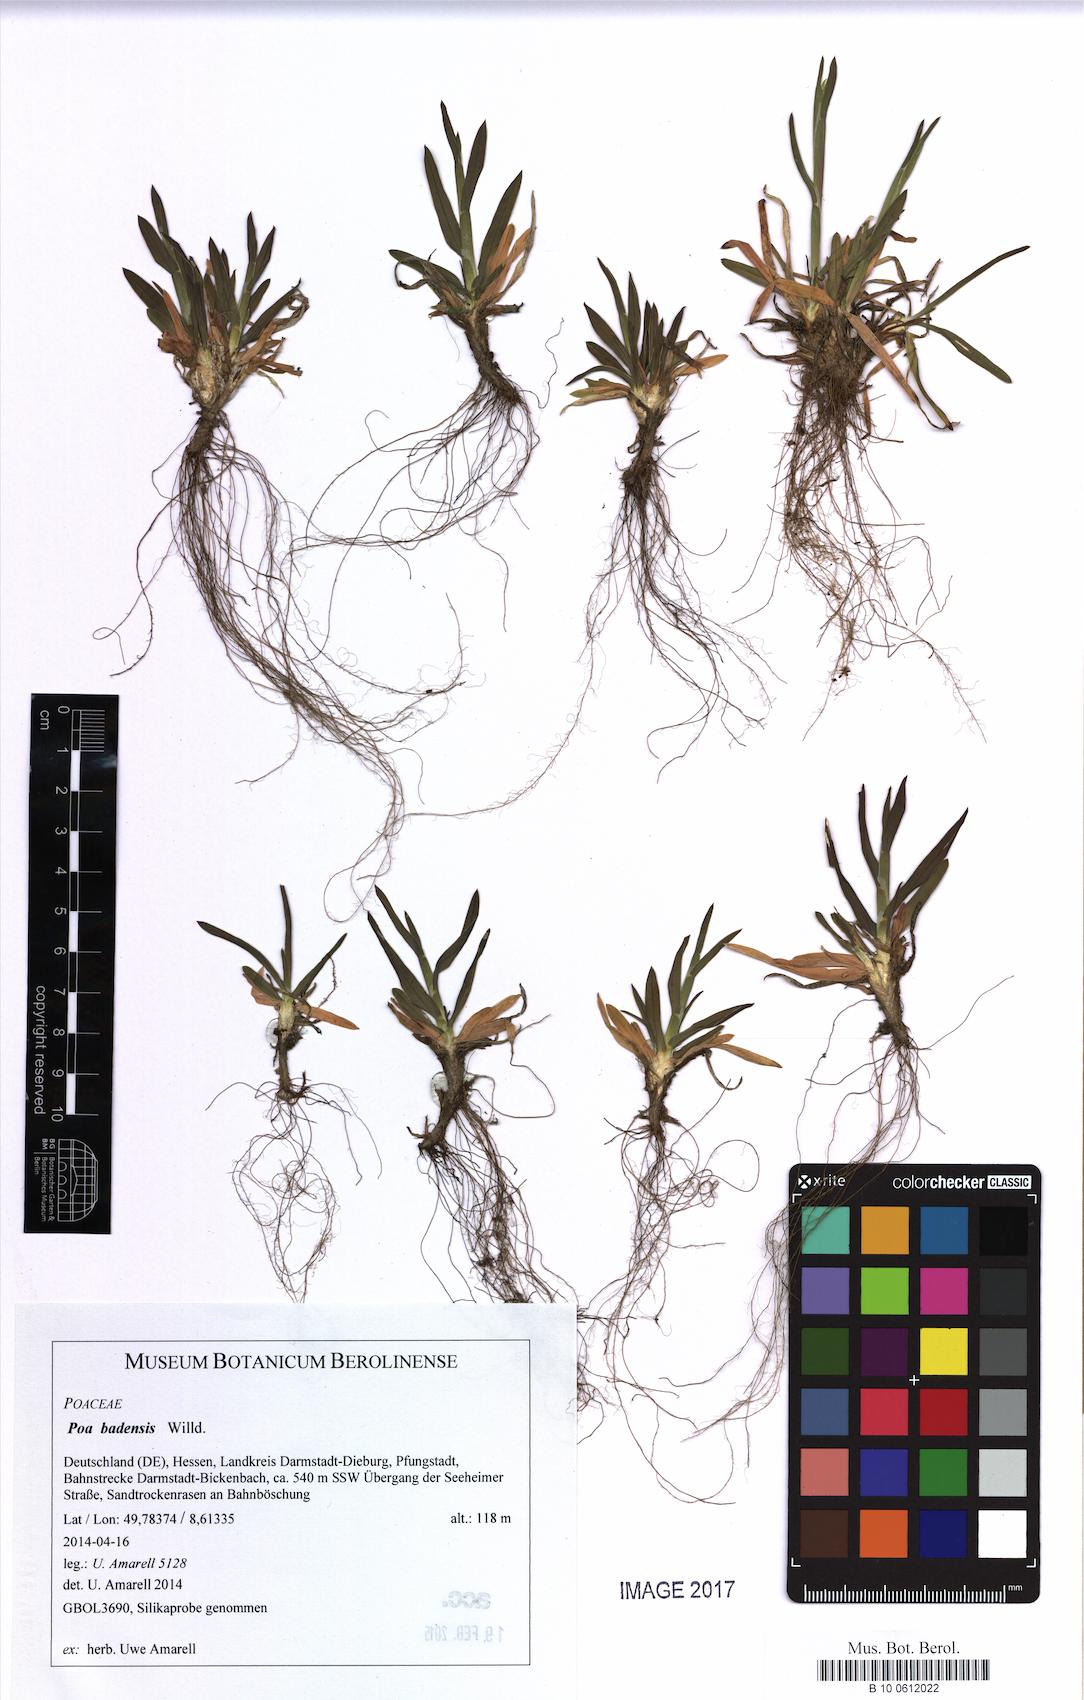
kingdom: Plantae
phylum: Tracheophyta
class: Liliopsida
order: Poales
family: Poaceae
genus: Poa
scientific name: Poa badensis
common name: Baden's bluegrass
